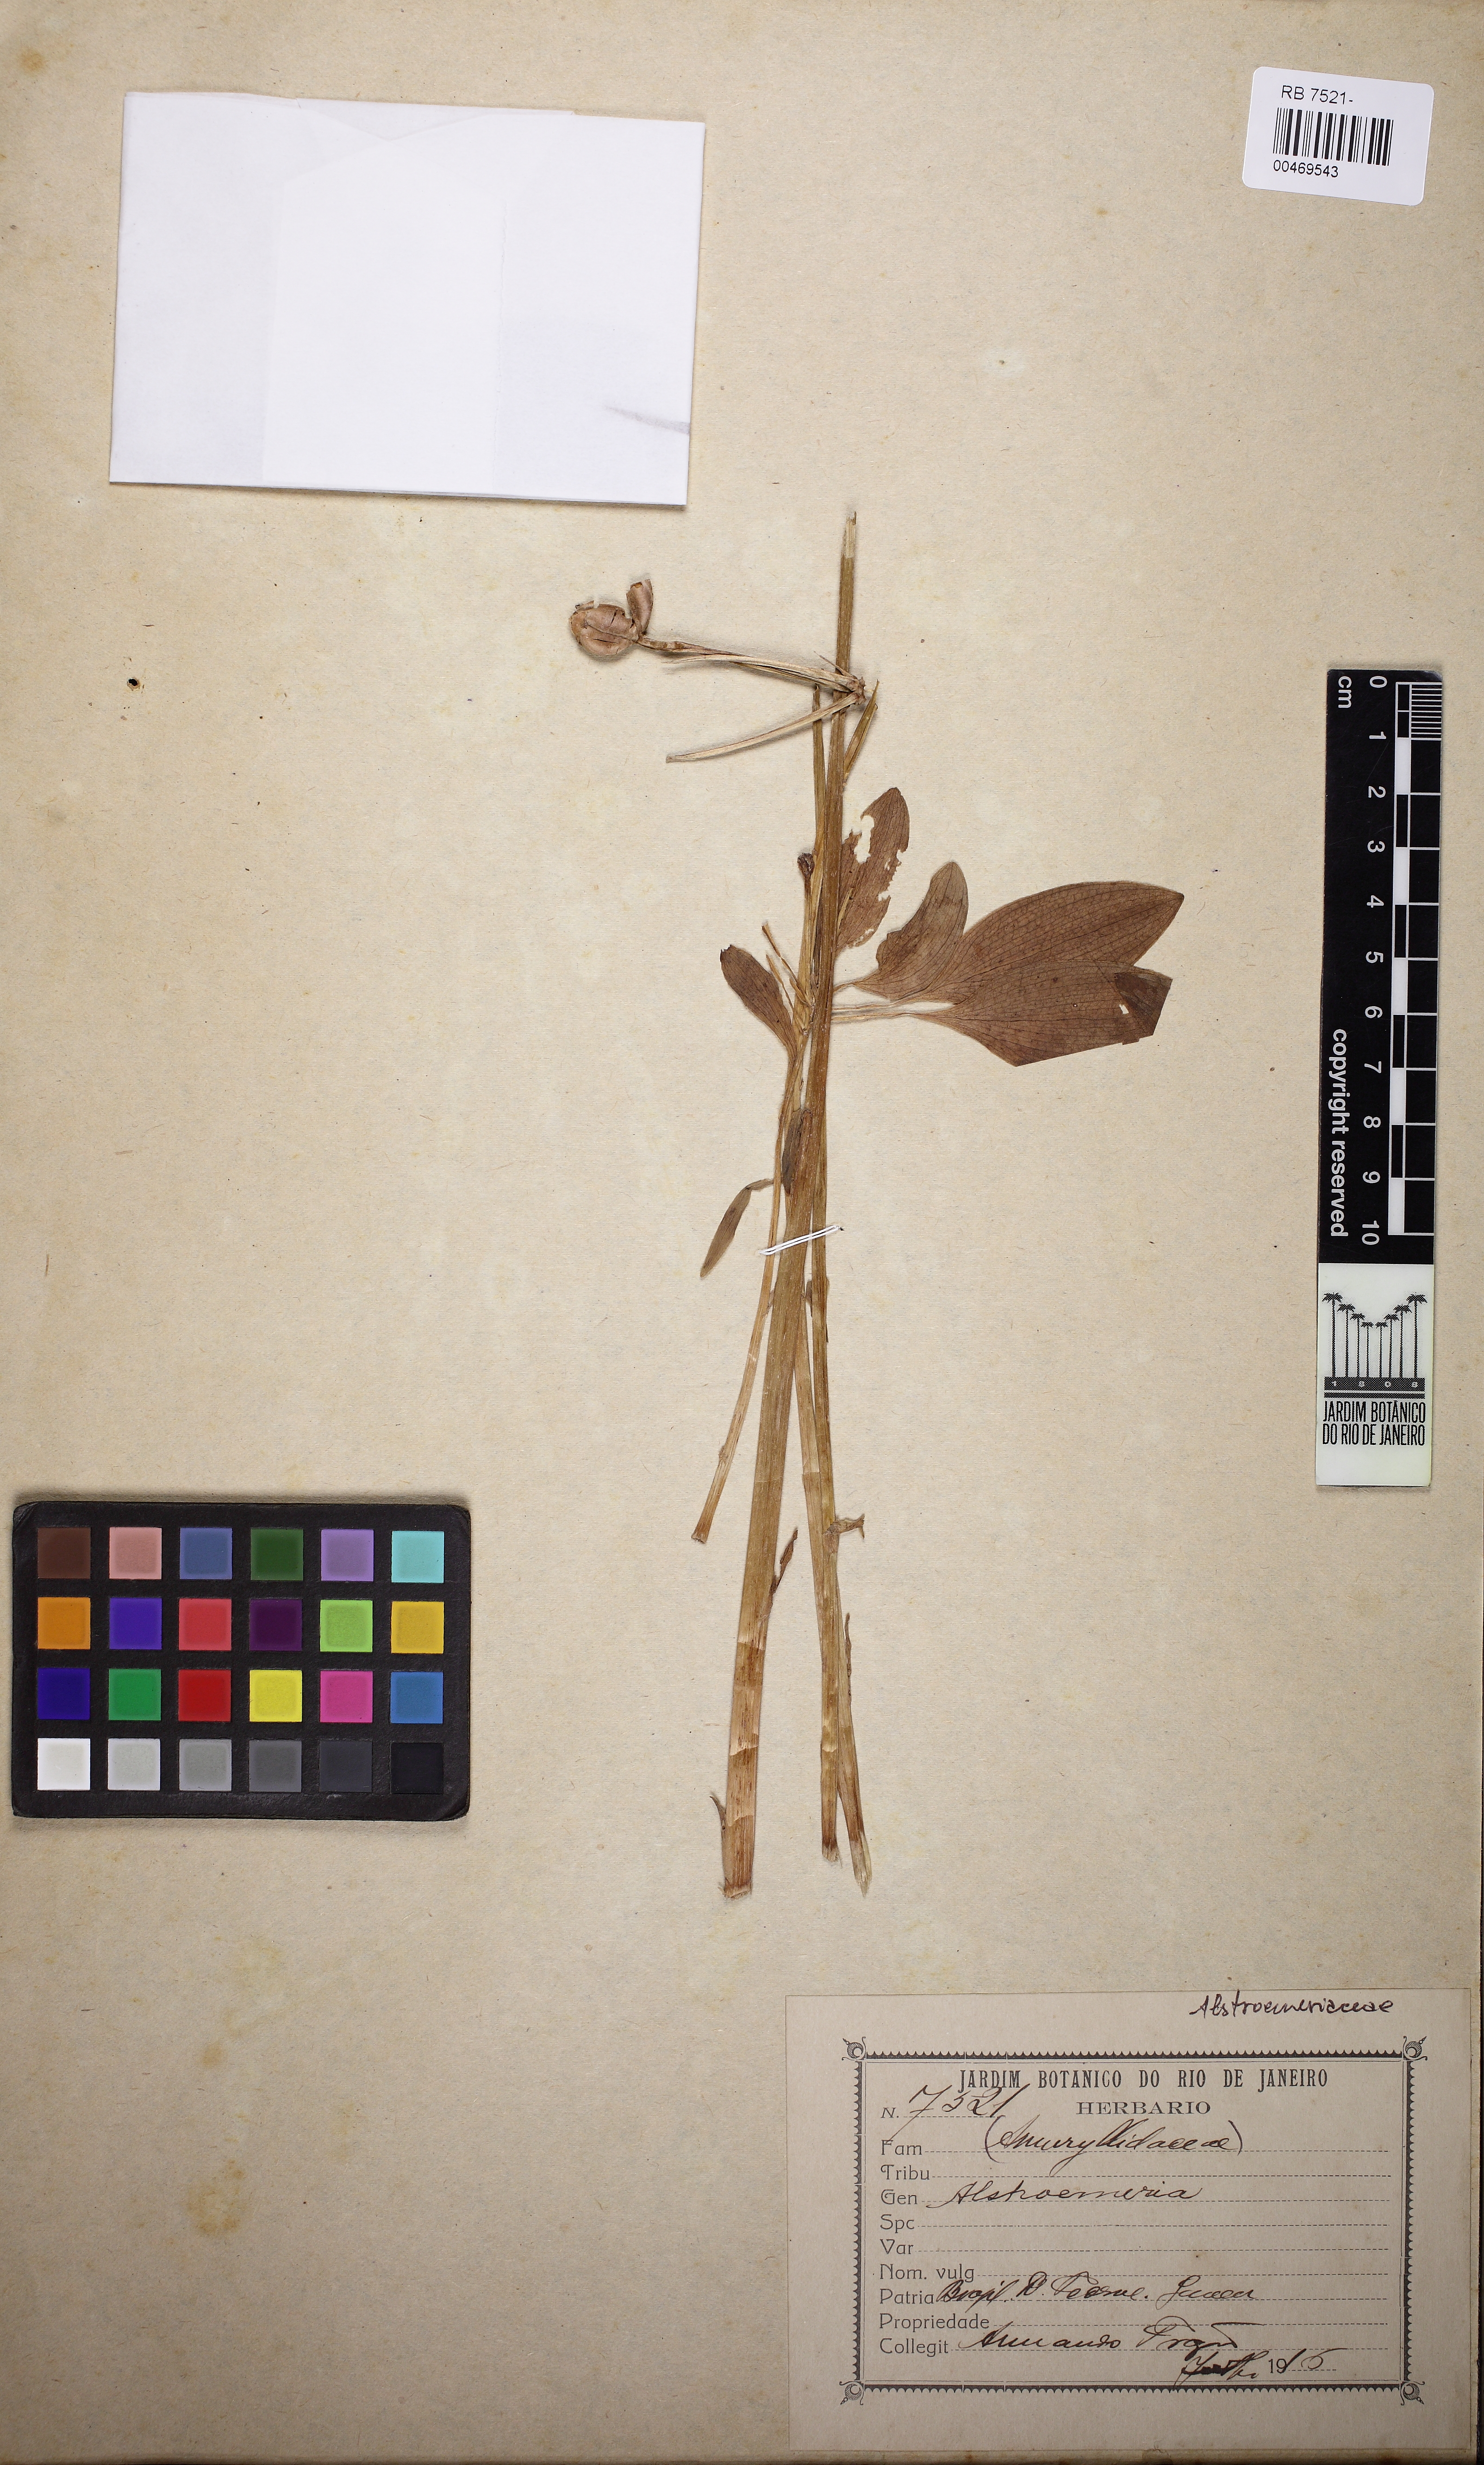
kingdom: Plantae
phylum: Tracheophyta
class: Liliopsida
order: Liliales
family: Alstroemeriaceae
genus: Alstroemeria
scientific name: Alstroemeria
